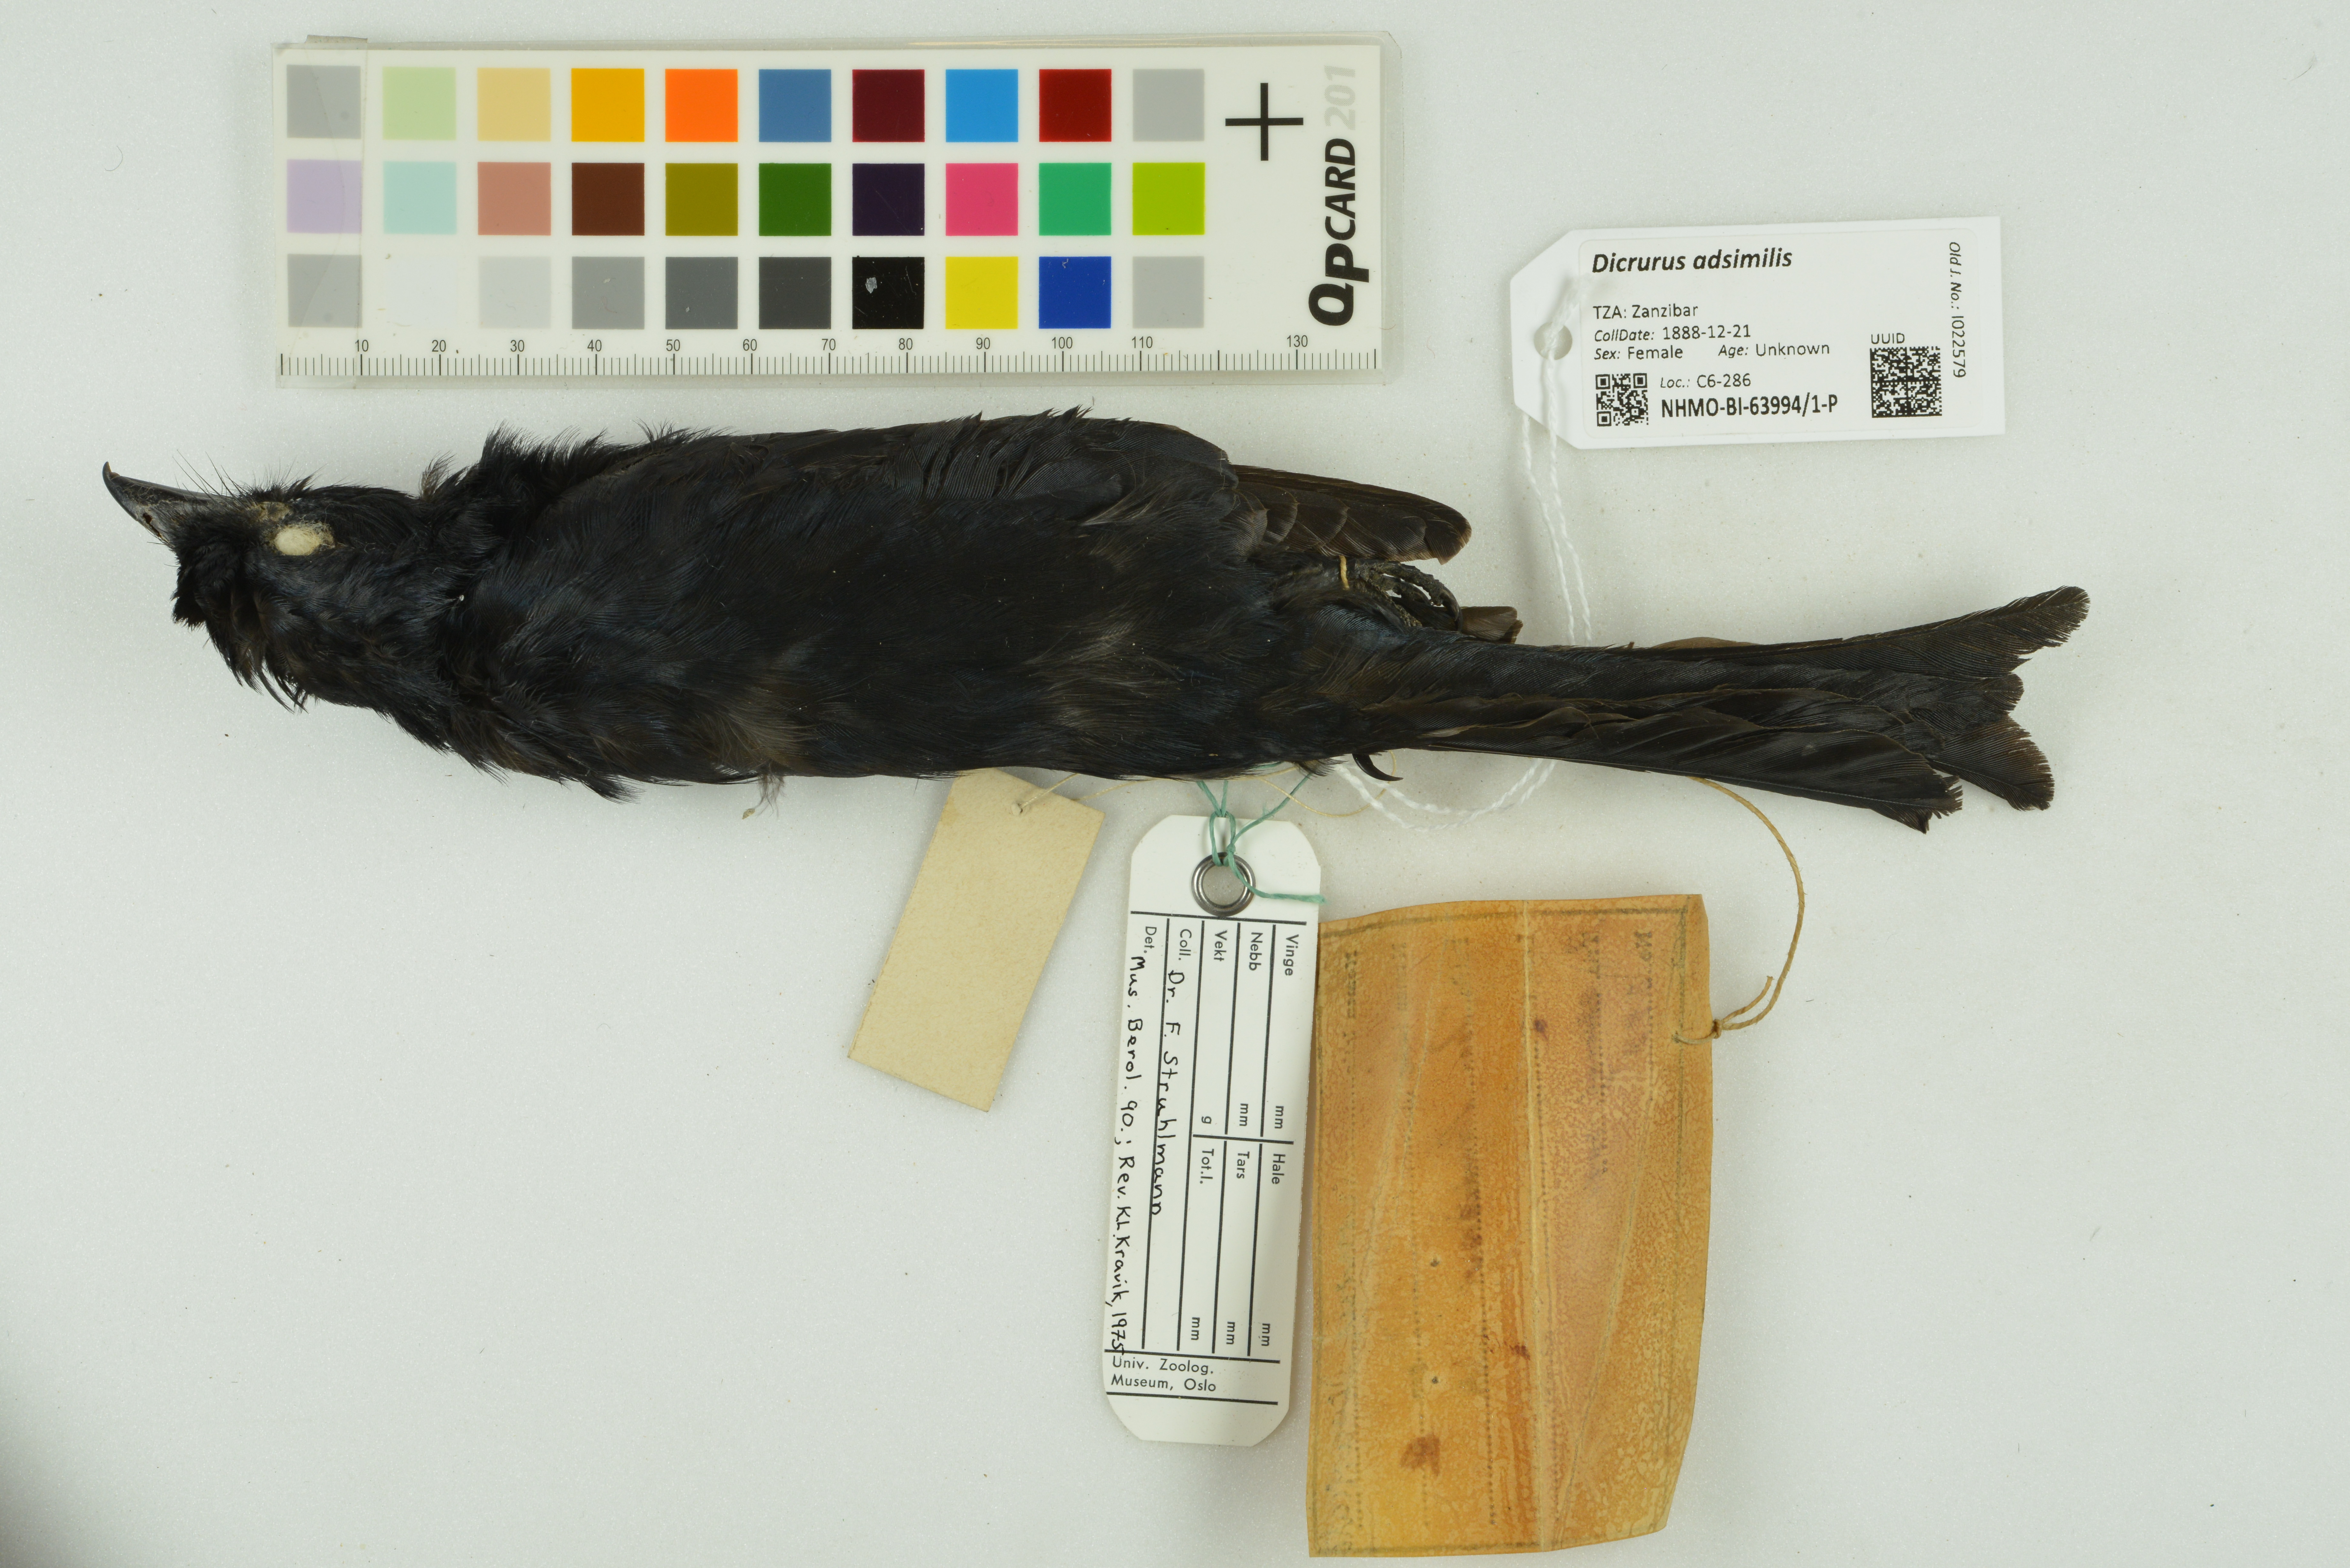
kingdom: Animalia
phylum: Chordata
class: Aves
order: Passeriformes
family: Dicruridae
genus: Dicrurus
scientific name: Dicrurus adsimilis
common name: Fork-tailed drongo
